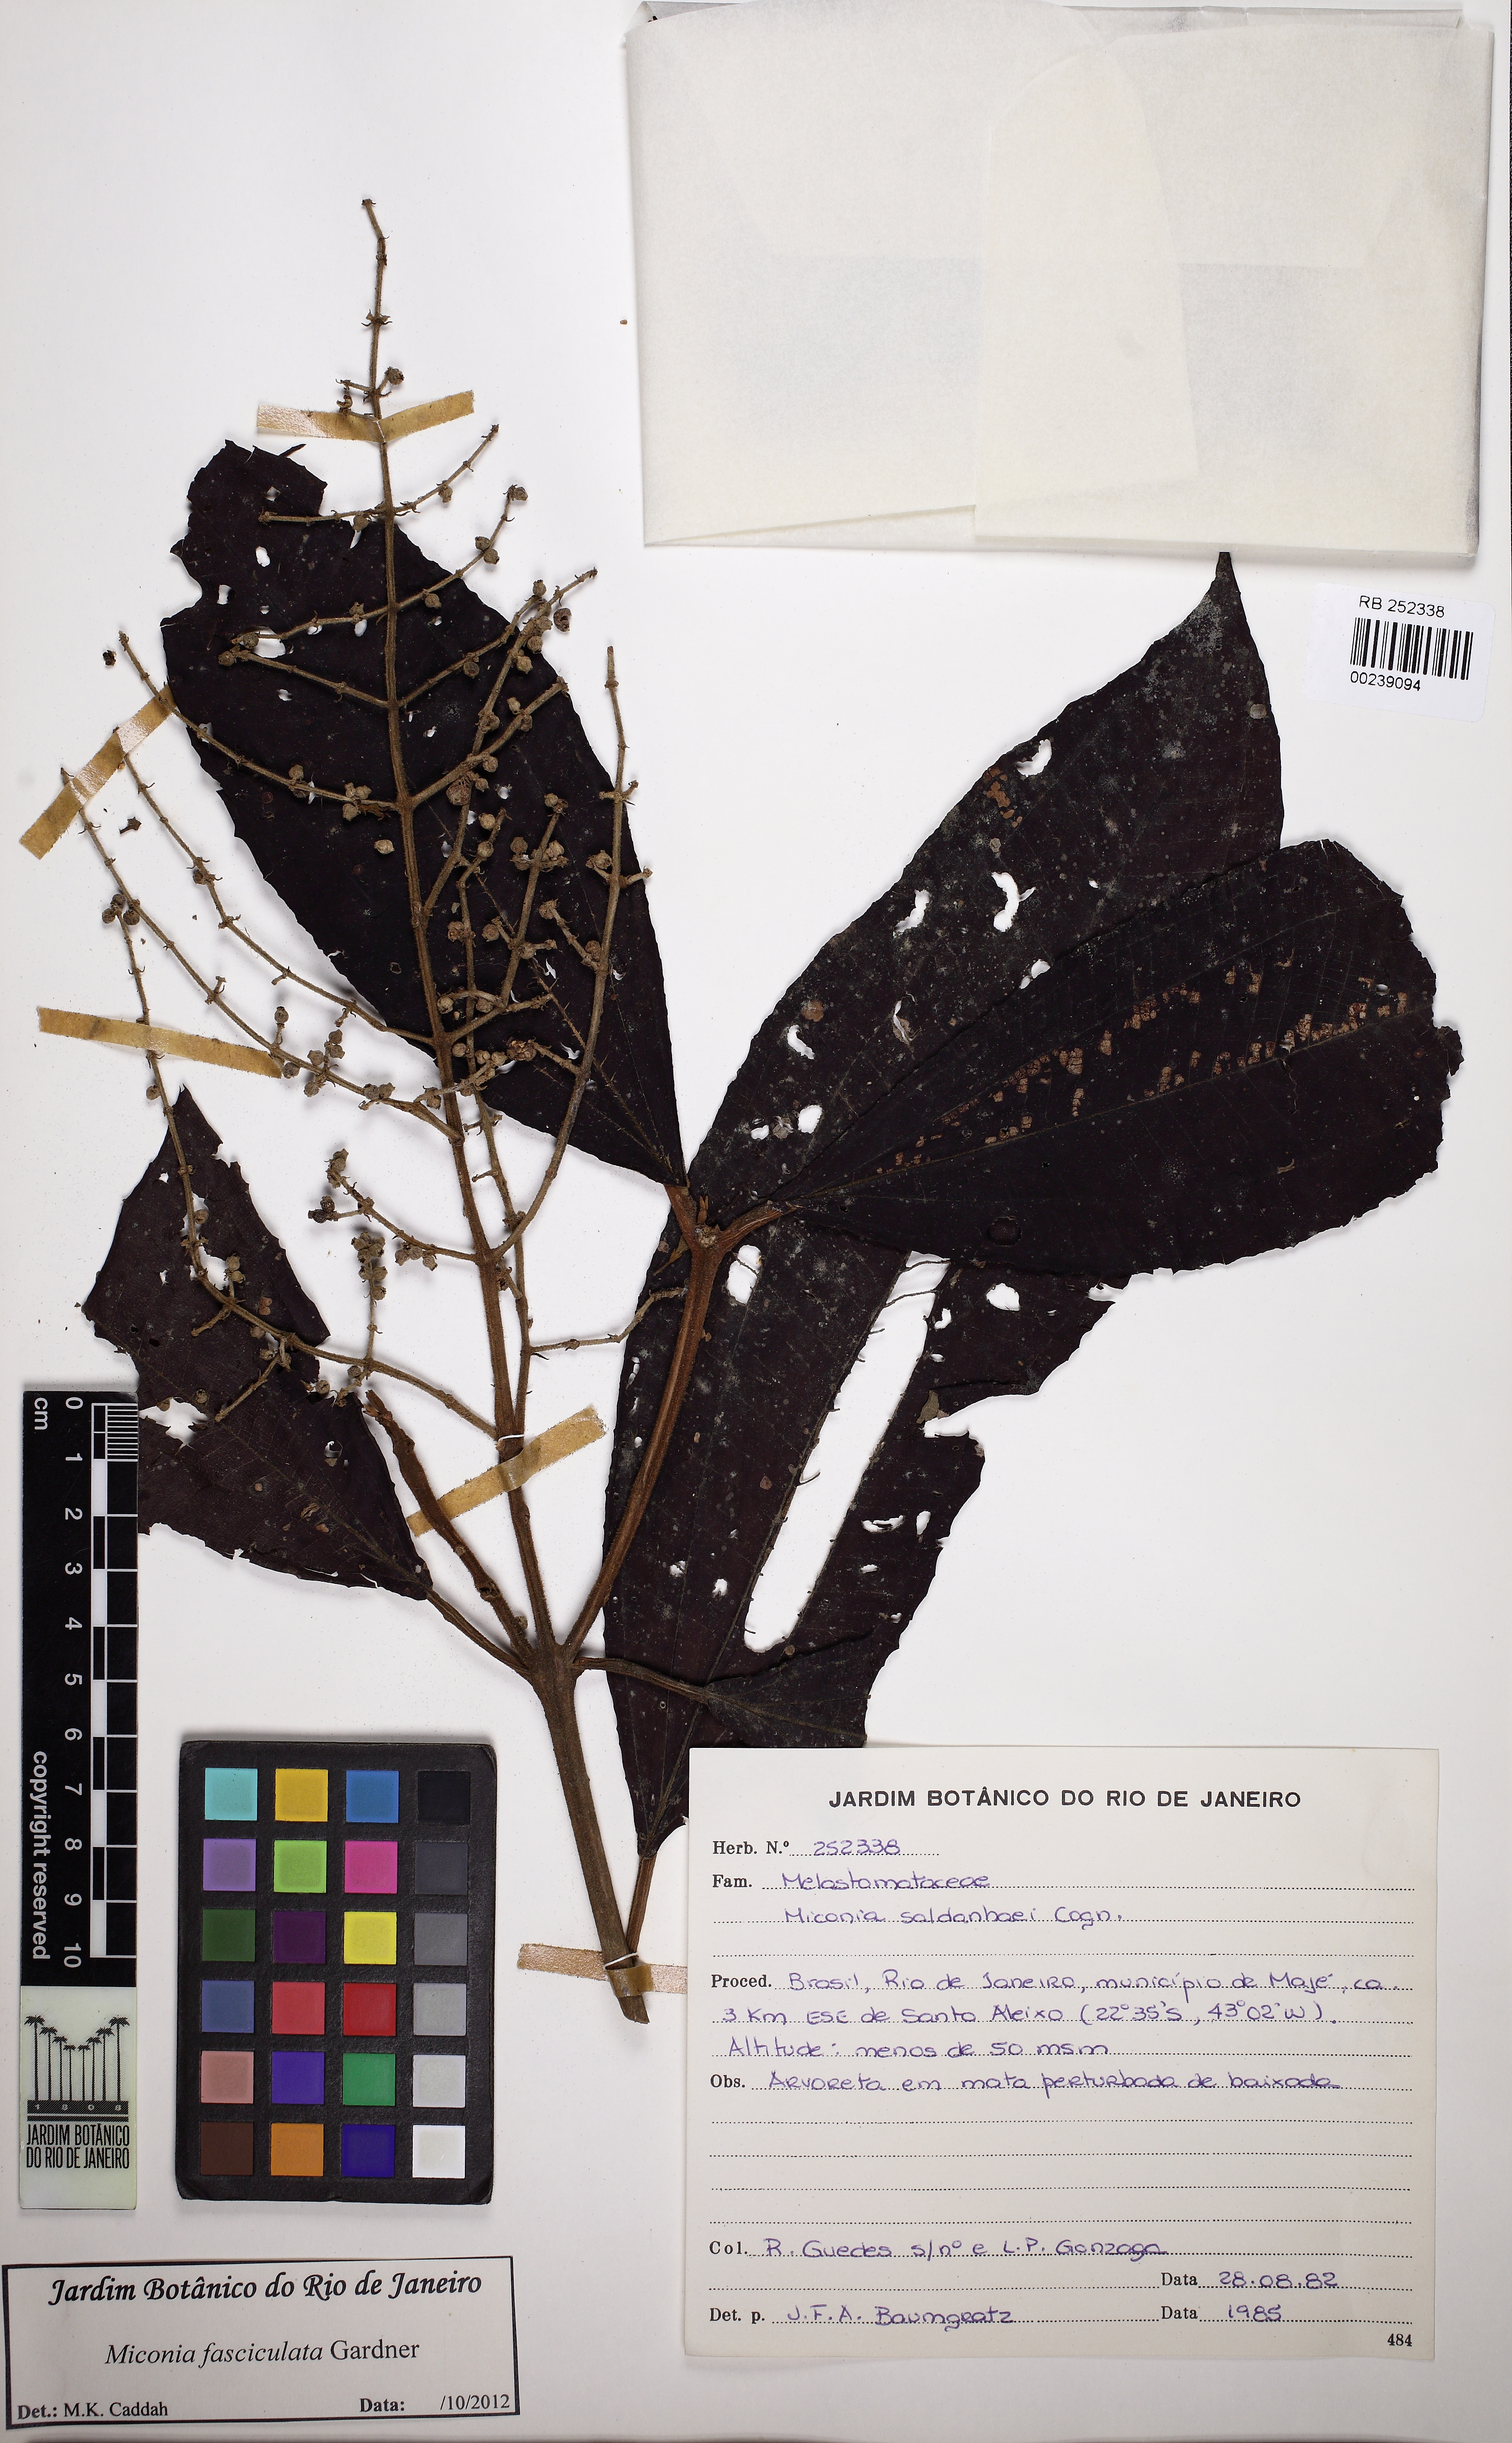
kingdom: Plantae
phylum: Tracheophyta
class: Magnoliopsida
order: Myrtales
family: Melastomataceae
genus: Miconia
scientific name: Miconia fasciculata
